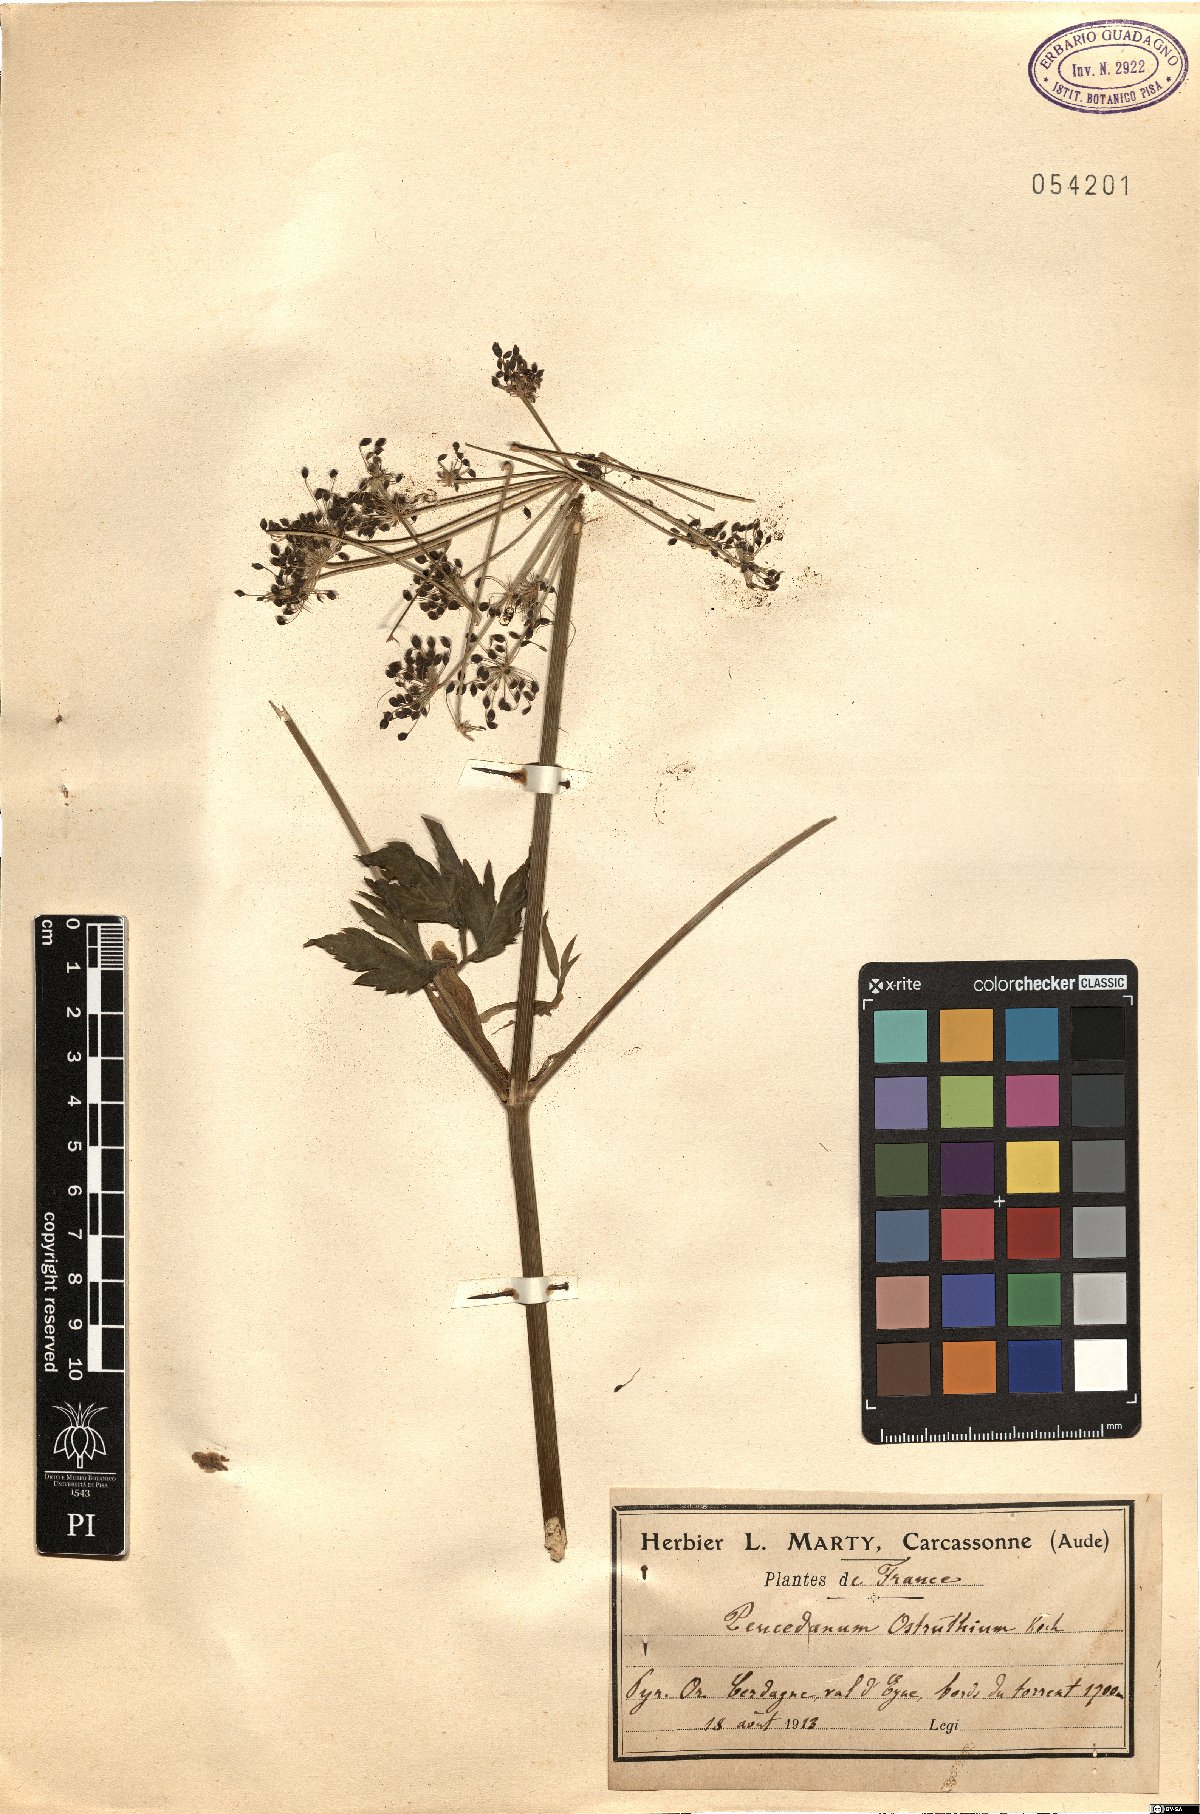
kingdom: Plantae
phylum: Tracheophyta
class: Magnoliopsida
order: Apiales
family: Apiaceae
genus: Imperatoria
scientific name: Imperatoria ostruthium
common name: Masterwort
